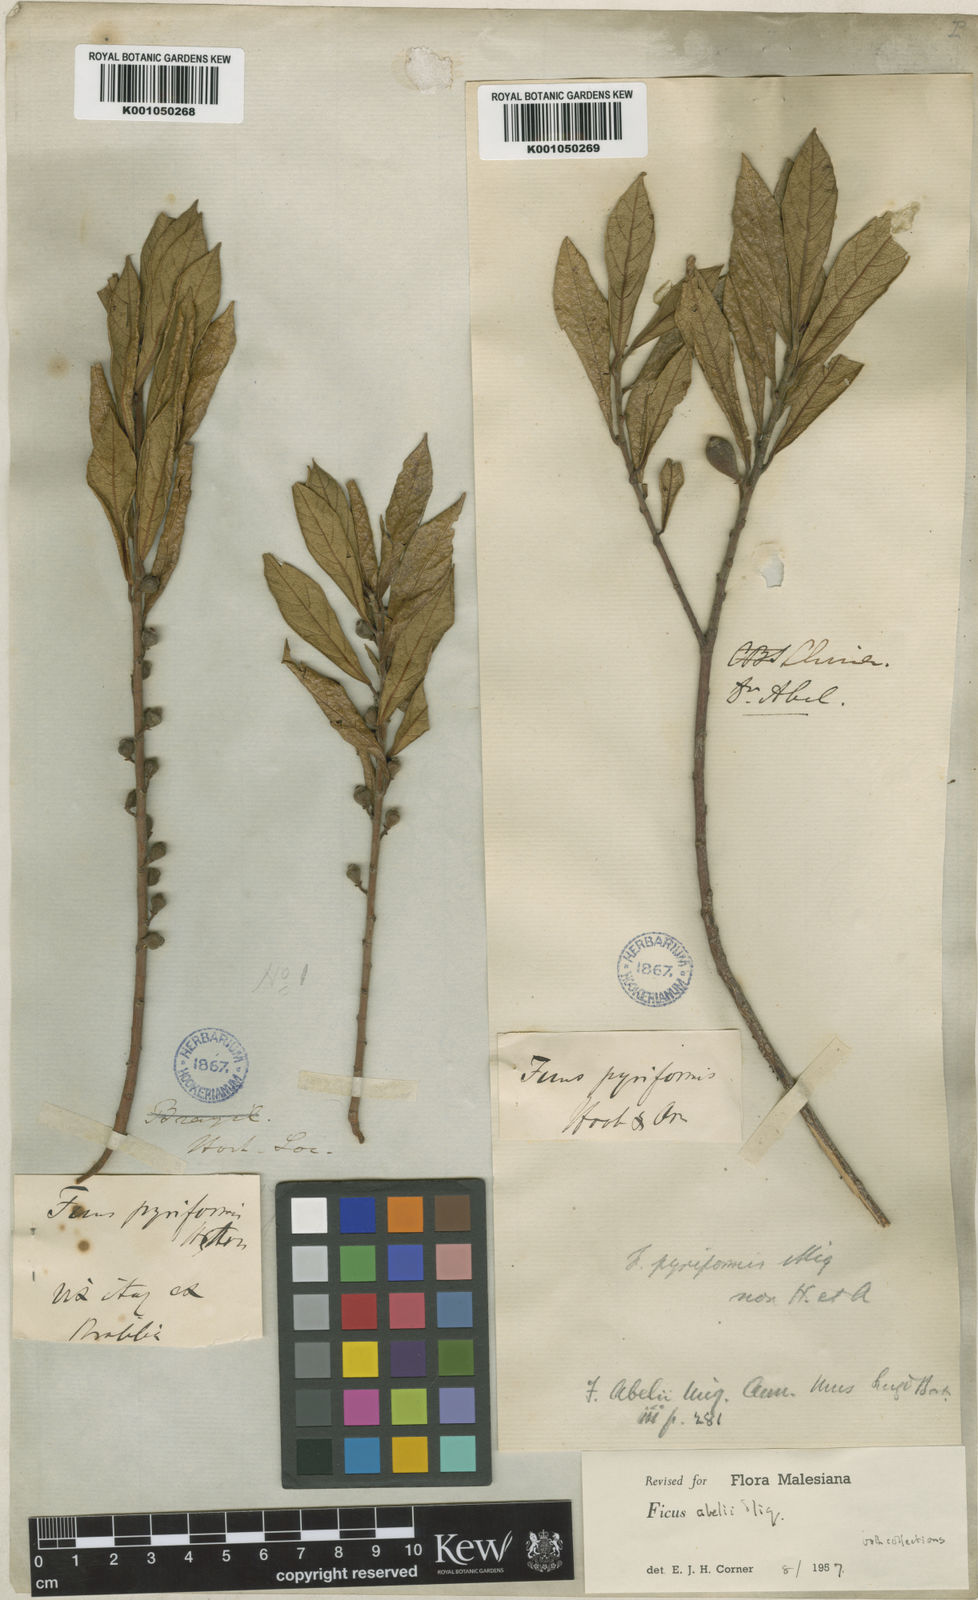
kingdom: Plantae
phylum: Tracheophyta
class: Magnoliopsida
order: Rosales
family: Moraceae
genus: Ficus
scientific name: Ficus abelii
